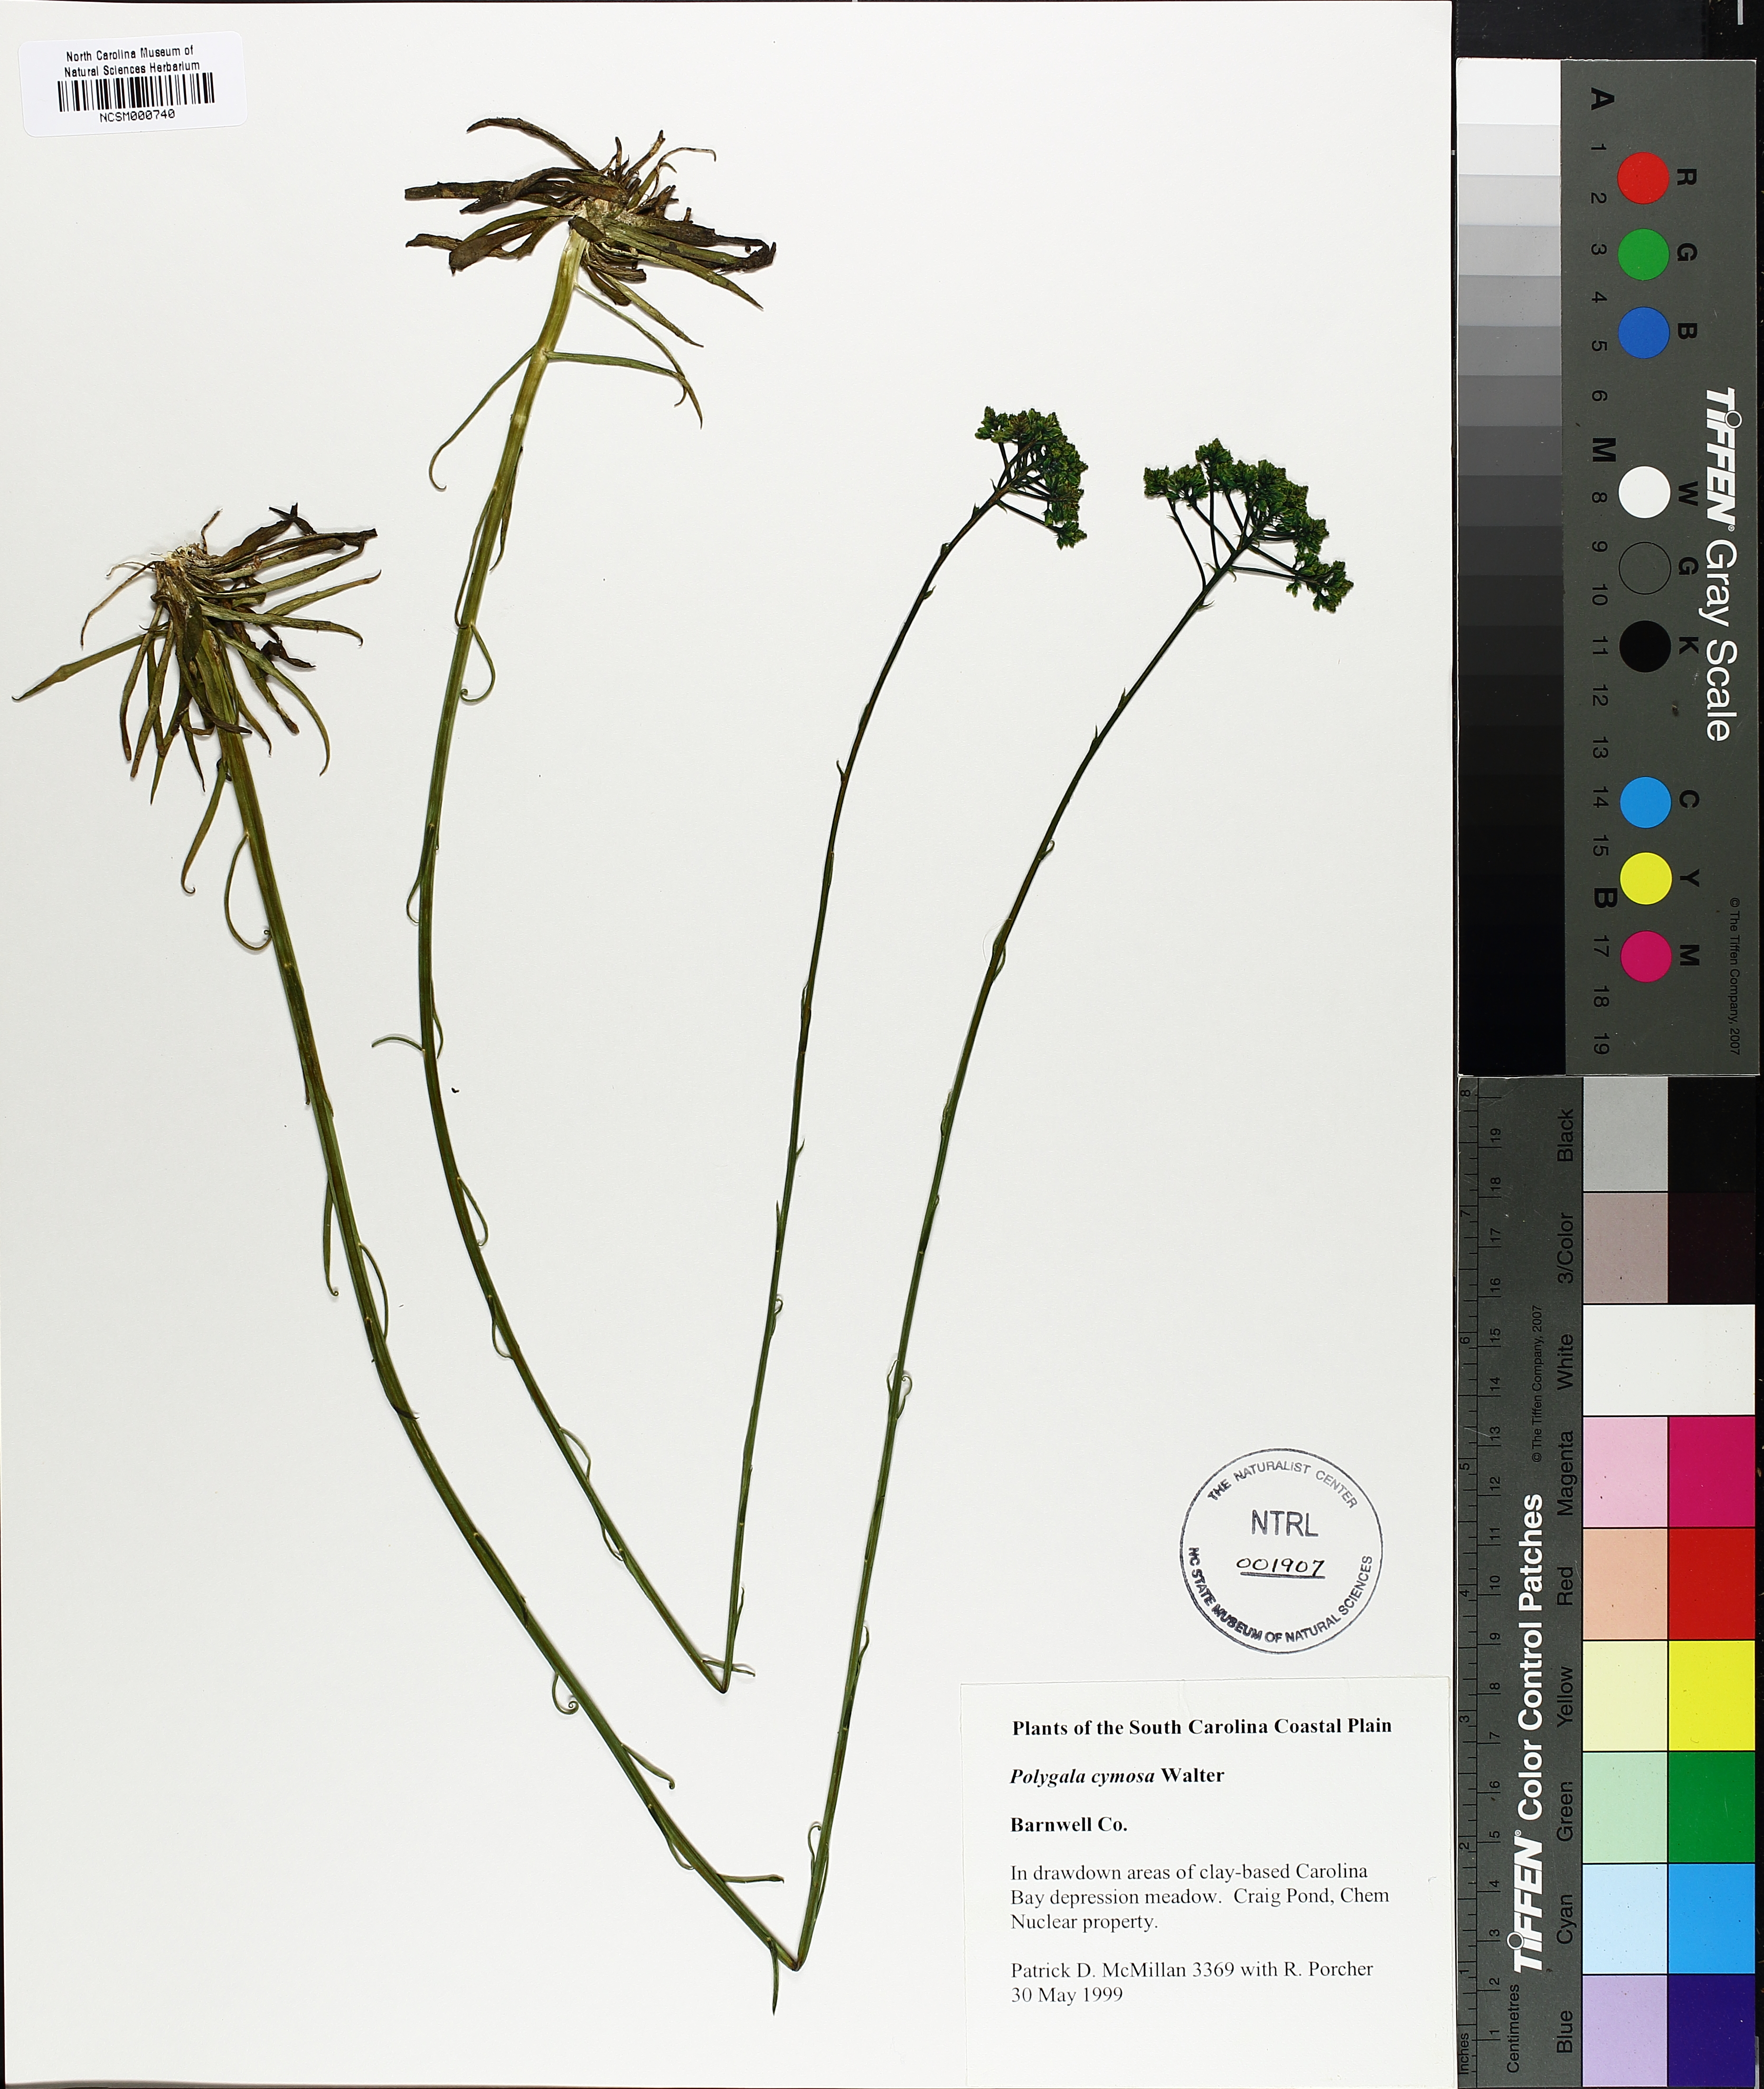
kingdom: Plantae
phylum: Tracheophyta
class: Magnoliopsida
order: Fabales
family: Polygalaceae
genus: Polygala
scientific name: Polygala cymosa
